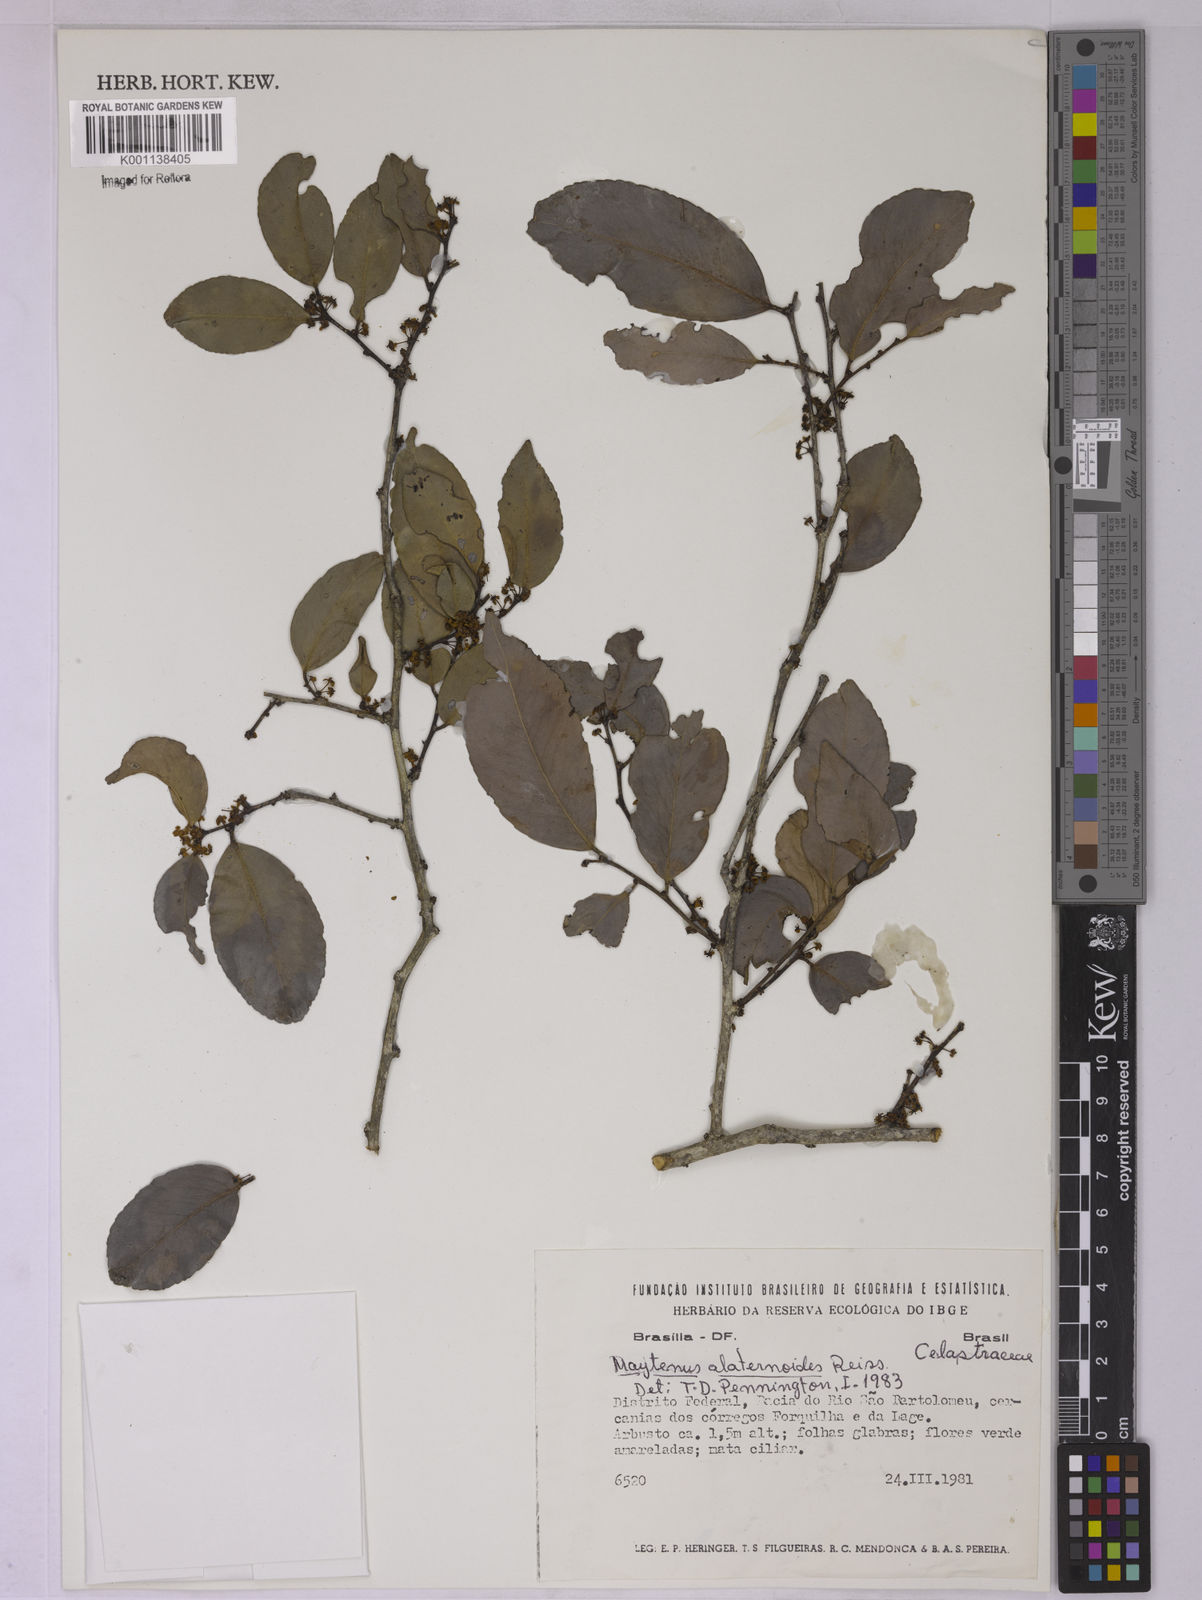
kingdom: Plantae
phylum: Tracheophyta
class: Magnoliopsida
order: Celastrales
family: Celastraceae
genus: Maytenus
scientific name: Maytenus alaternoides
